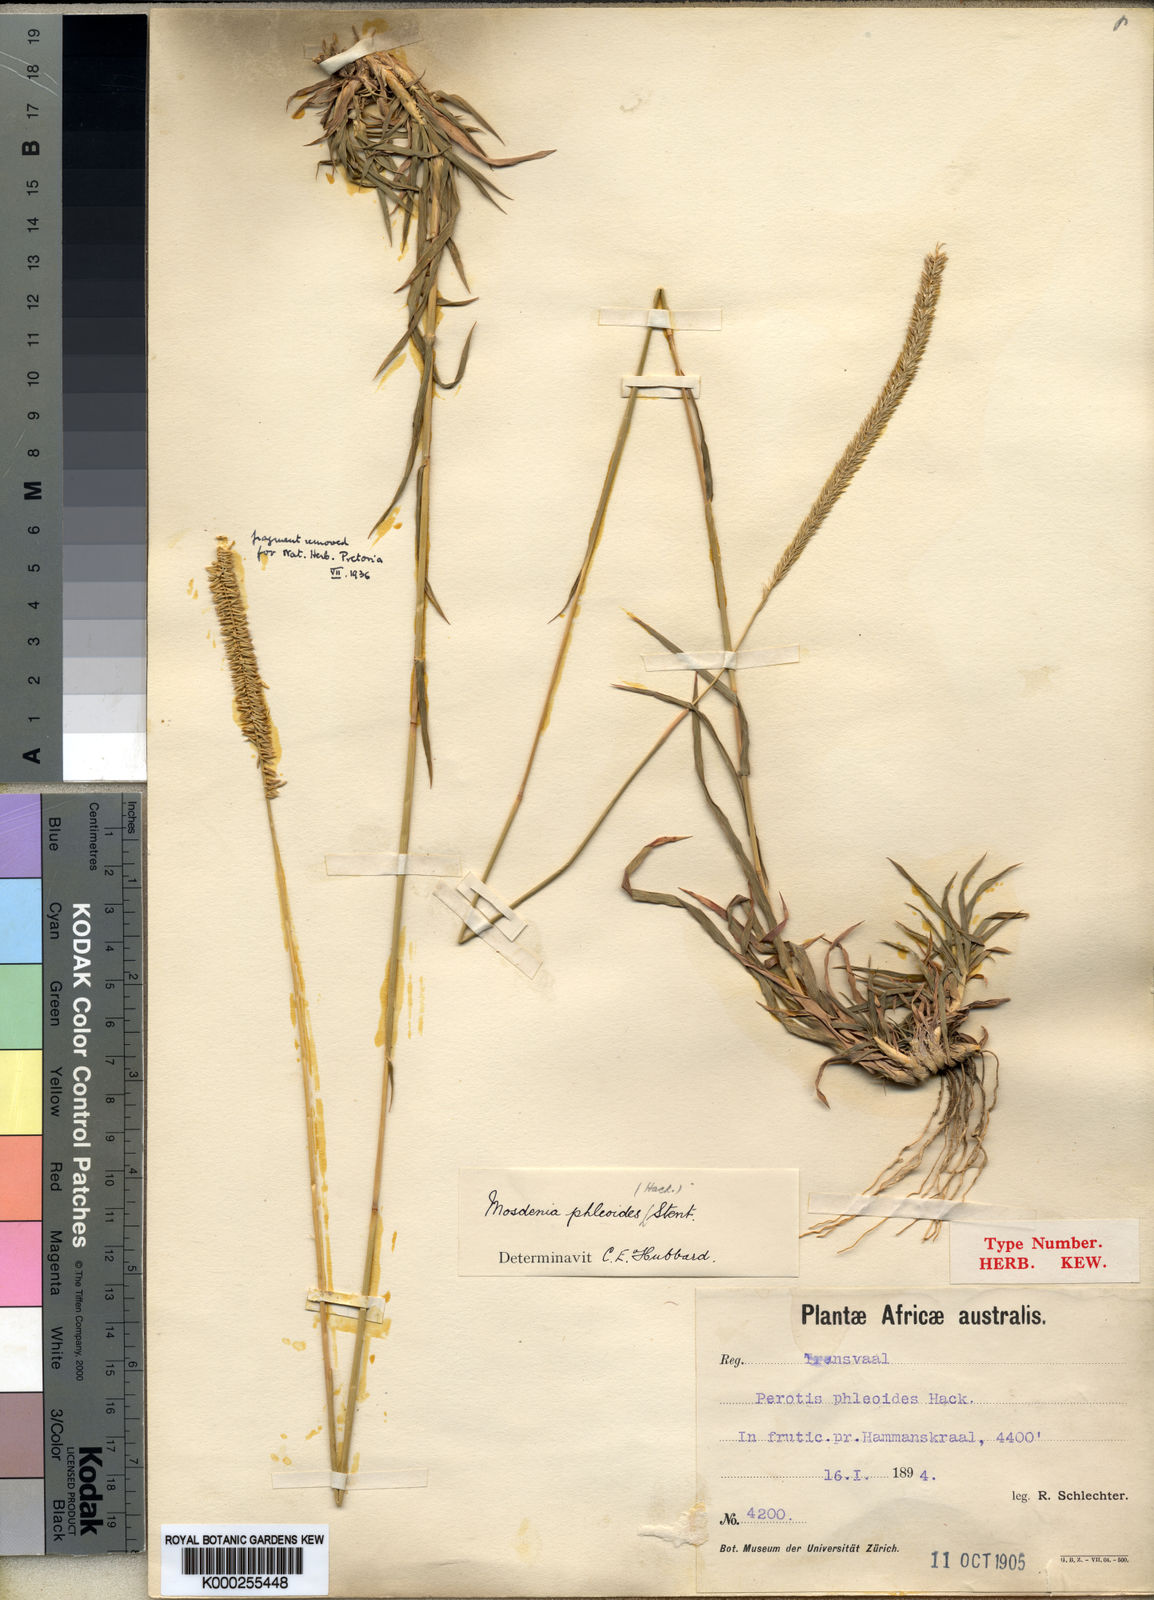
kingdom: Plantae
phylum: Tracheophyta
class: Liliopsida
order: Poales
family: Poaceae
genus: Mosdenia
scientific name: Mosdenia leptostachys
